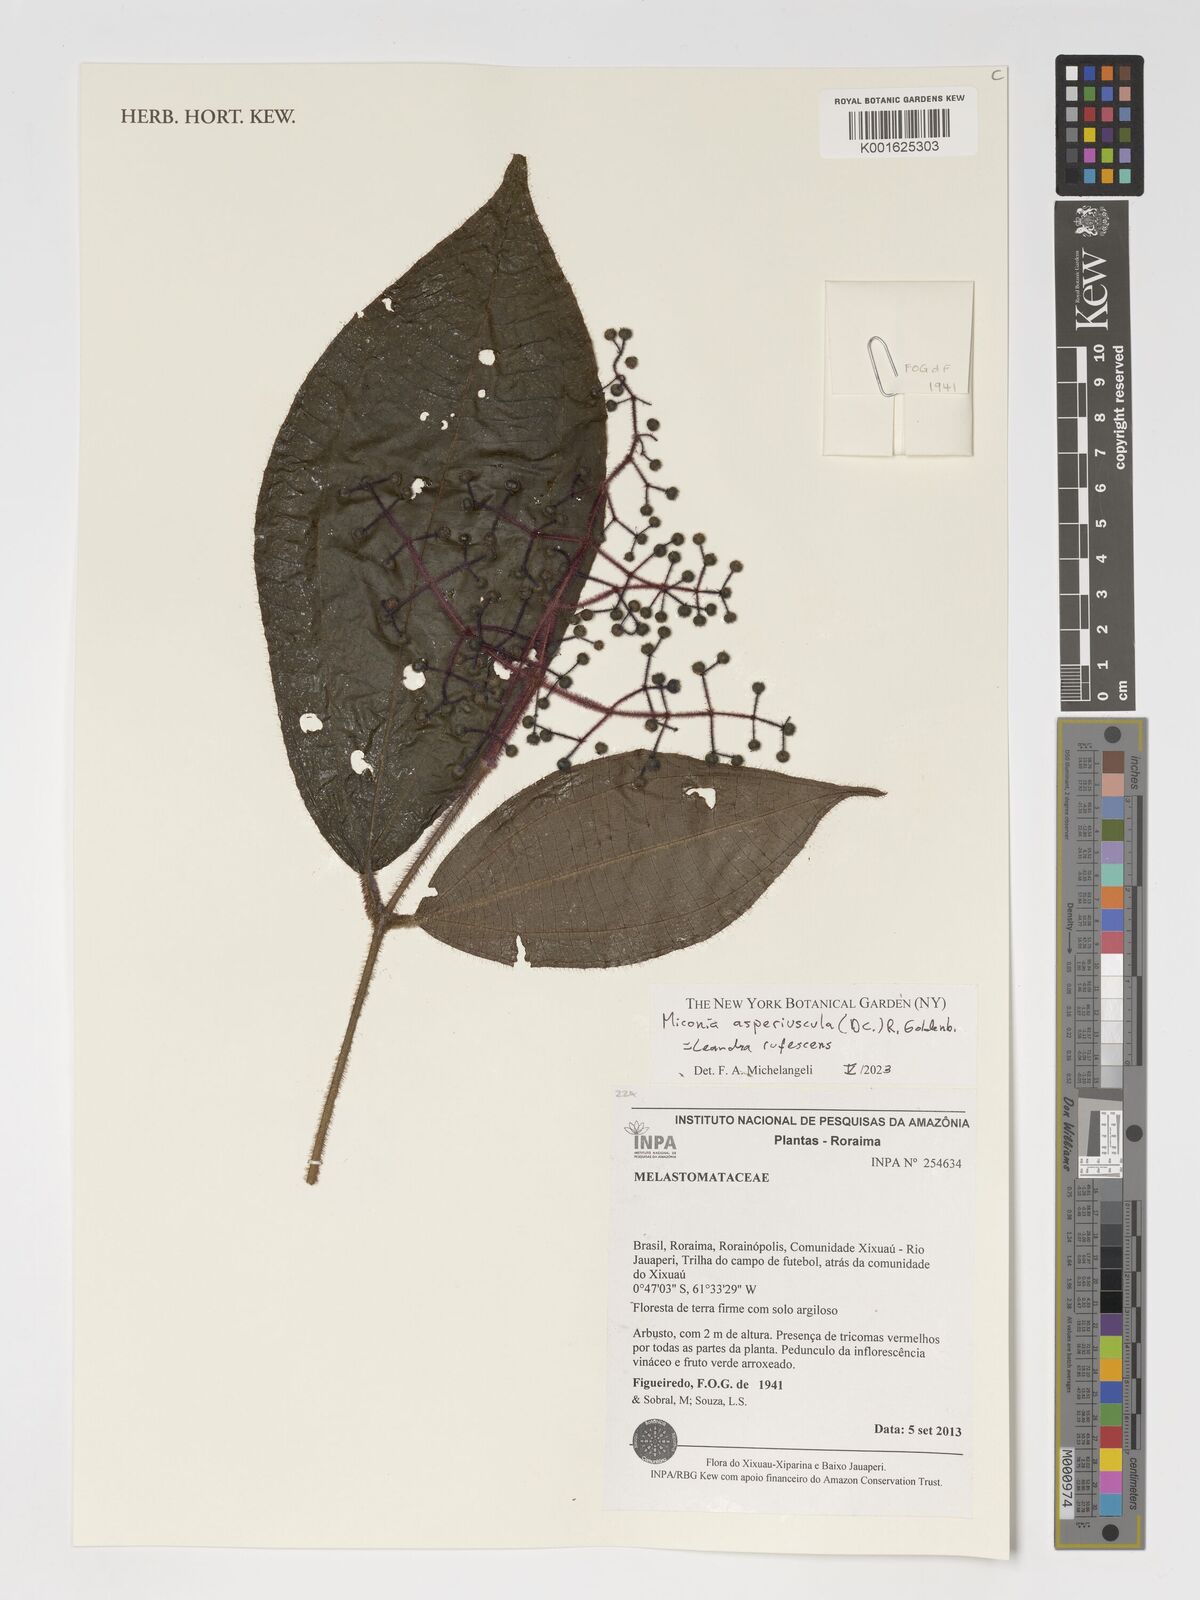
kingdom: Plantae
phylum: Tracheophyta
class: Magnoliopsida
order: Myrtales
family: Melastomataceae
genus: Miconia
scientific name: Miconia
